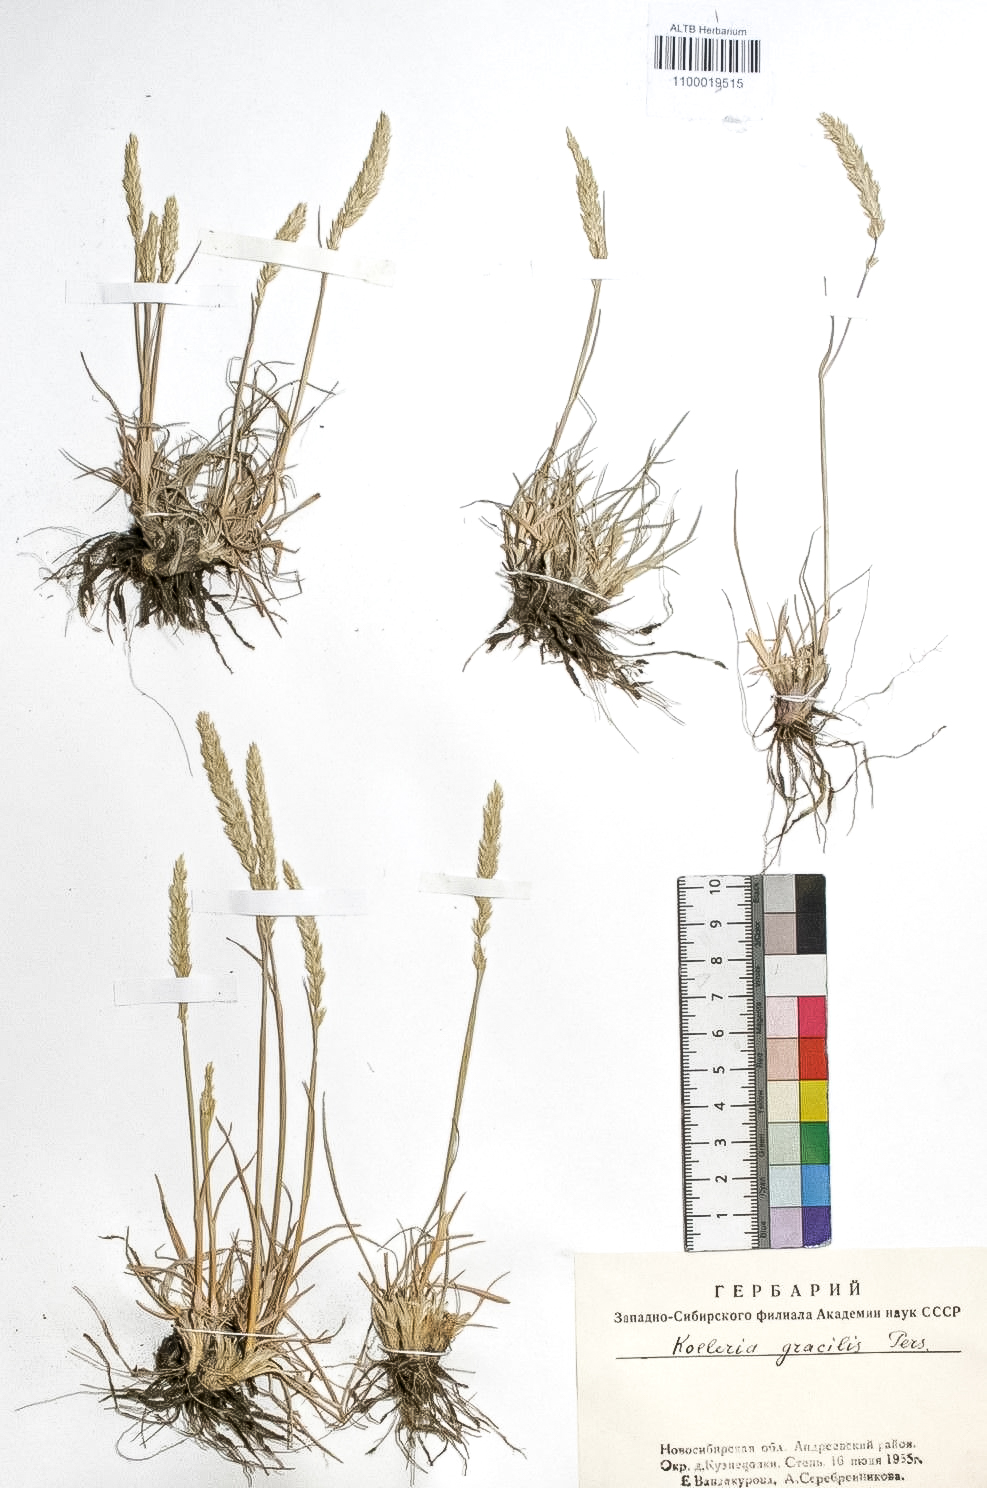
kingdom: Plantae
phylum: Tracheophyta
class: Liliopsida
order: Poales
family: Poaceae
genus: Koeleria
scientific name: Koeleria macrantha
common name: Crested hair-grass
